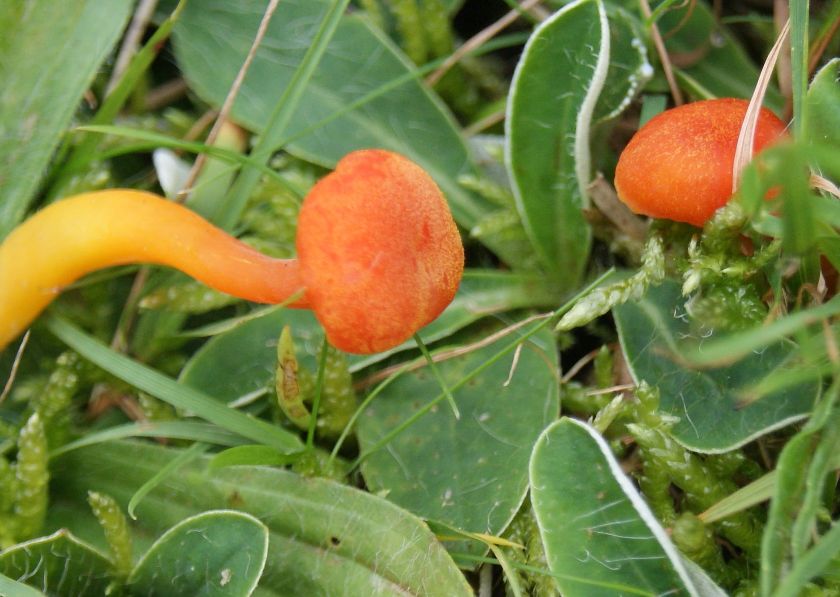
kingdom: Fungi
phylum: Basidiomycota
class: Agaricomycetes
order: Agaricales
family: Hygrophoraceae
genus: Hygrocybe
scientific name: Hygrocybe miniata
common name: mønje-vokshat
